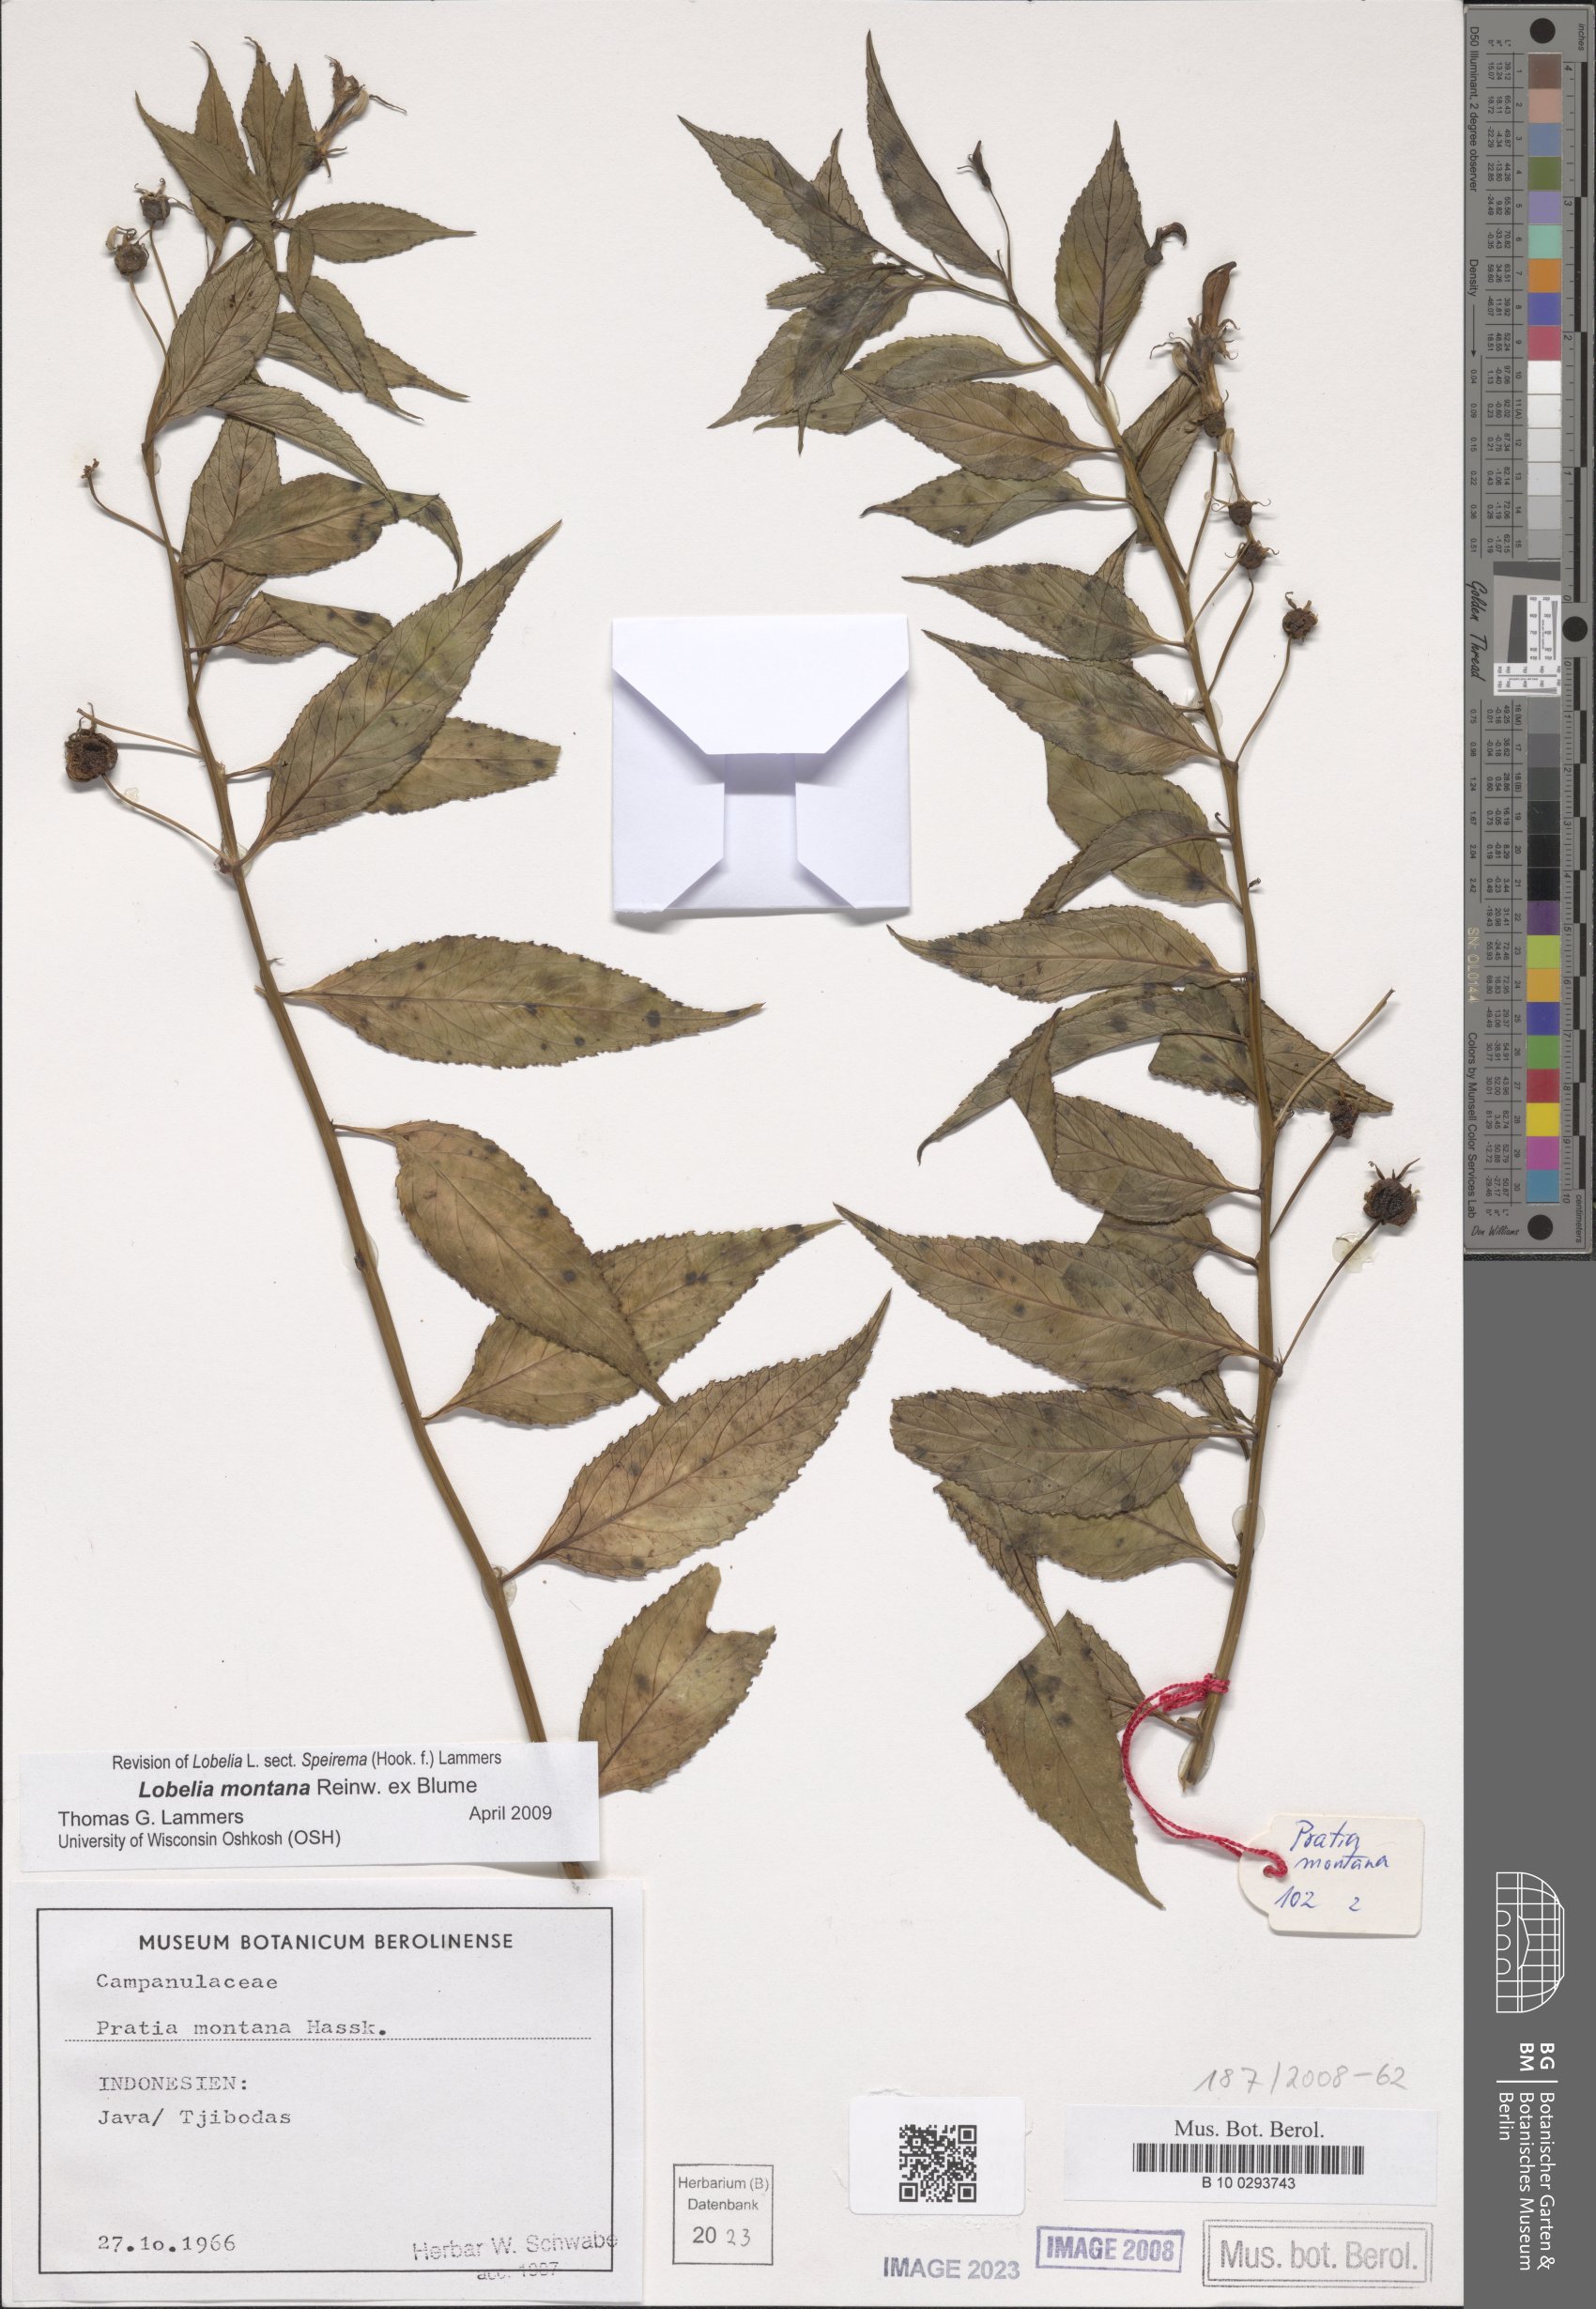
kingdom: Plantae
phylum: Tracheophyta
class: Magnoliopsida
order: Asterales
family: Campanulaceae
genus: Lobelia
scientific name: Lobelia montana
